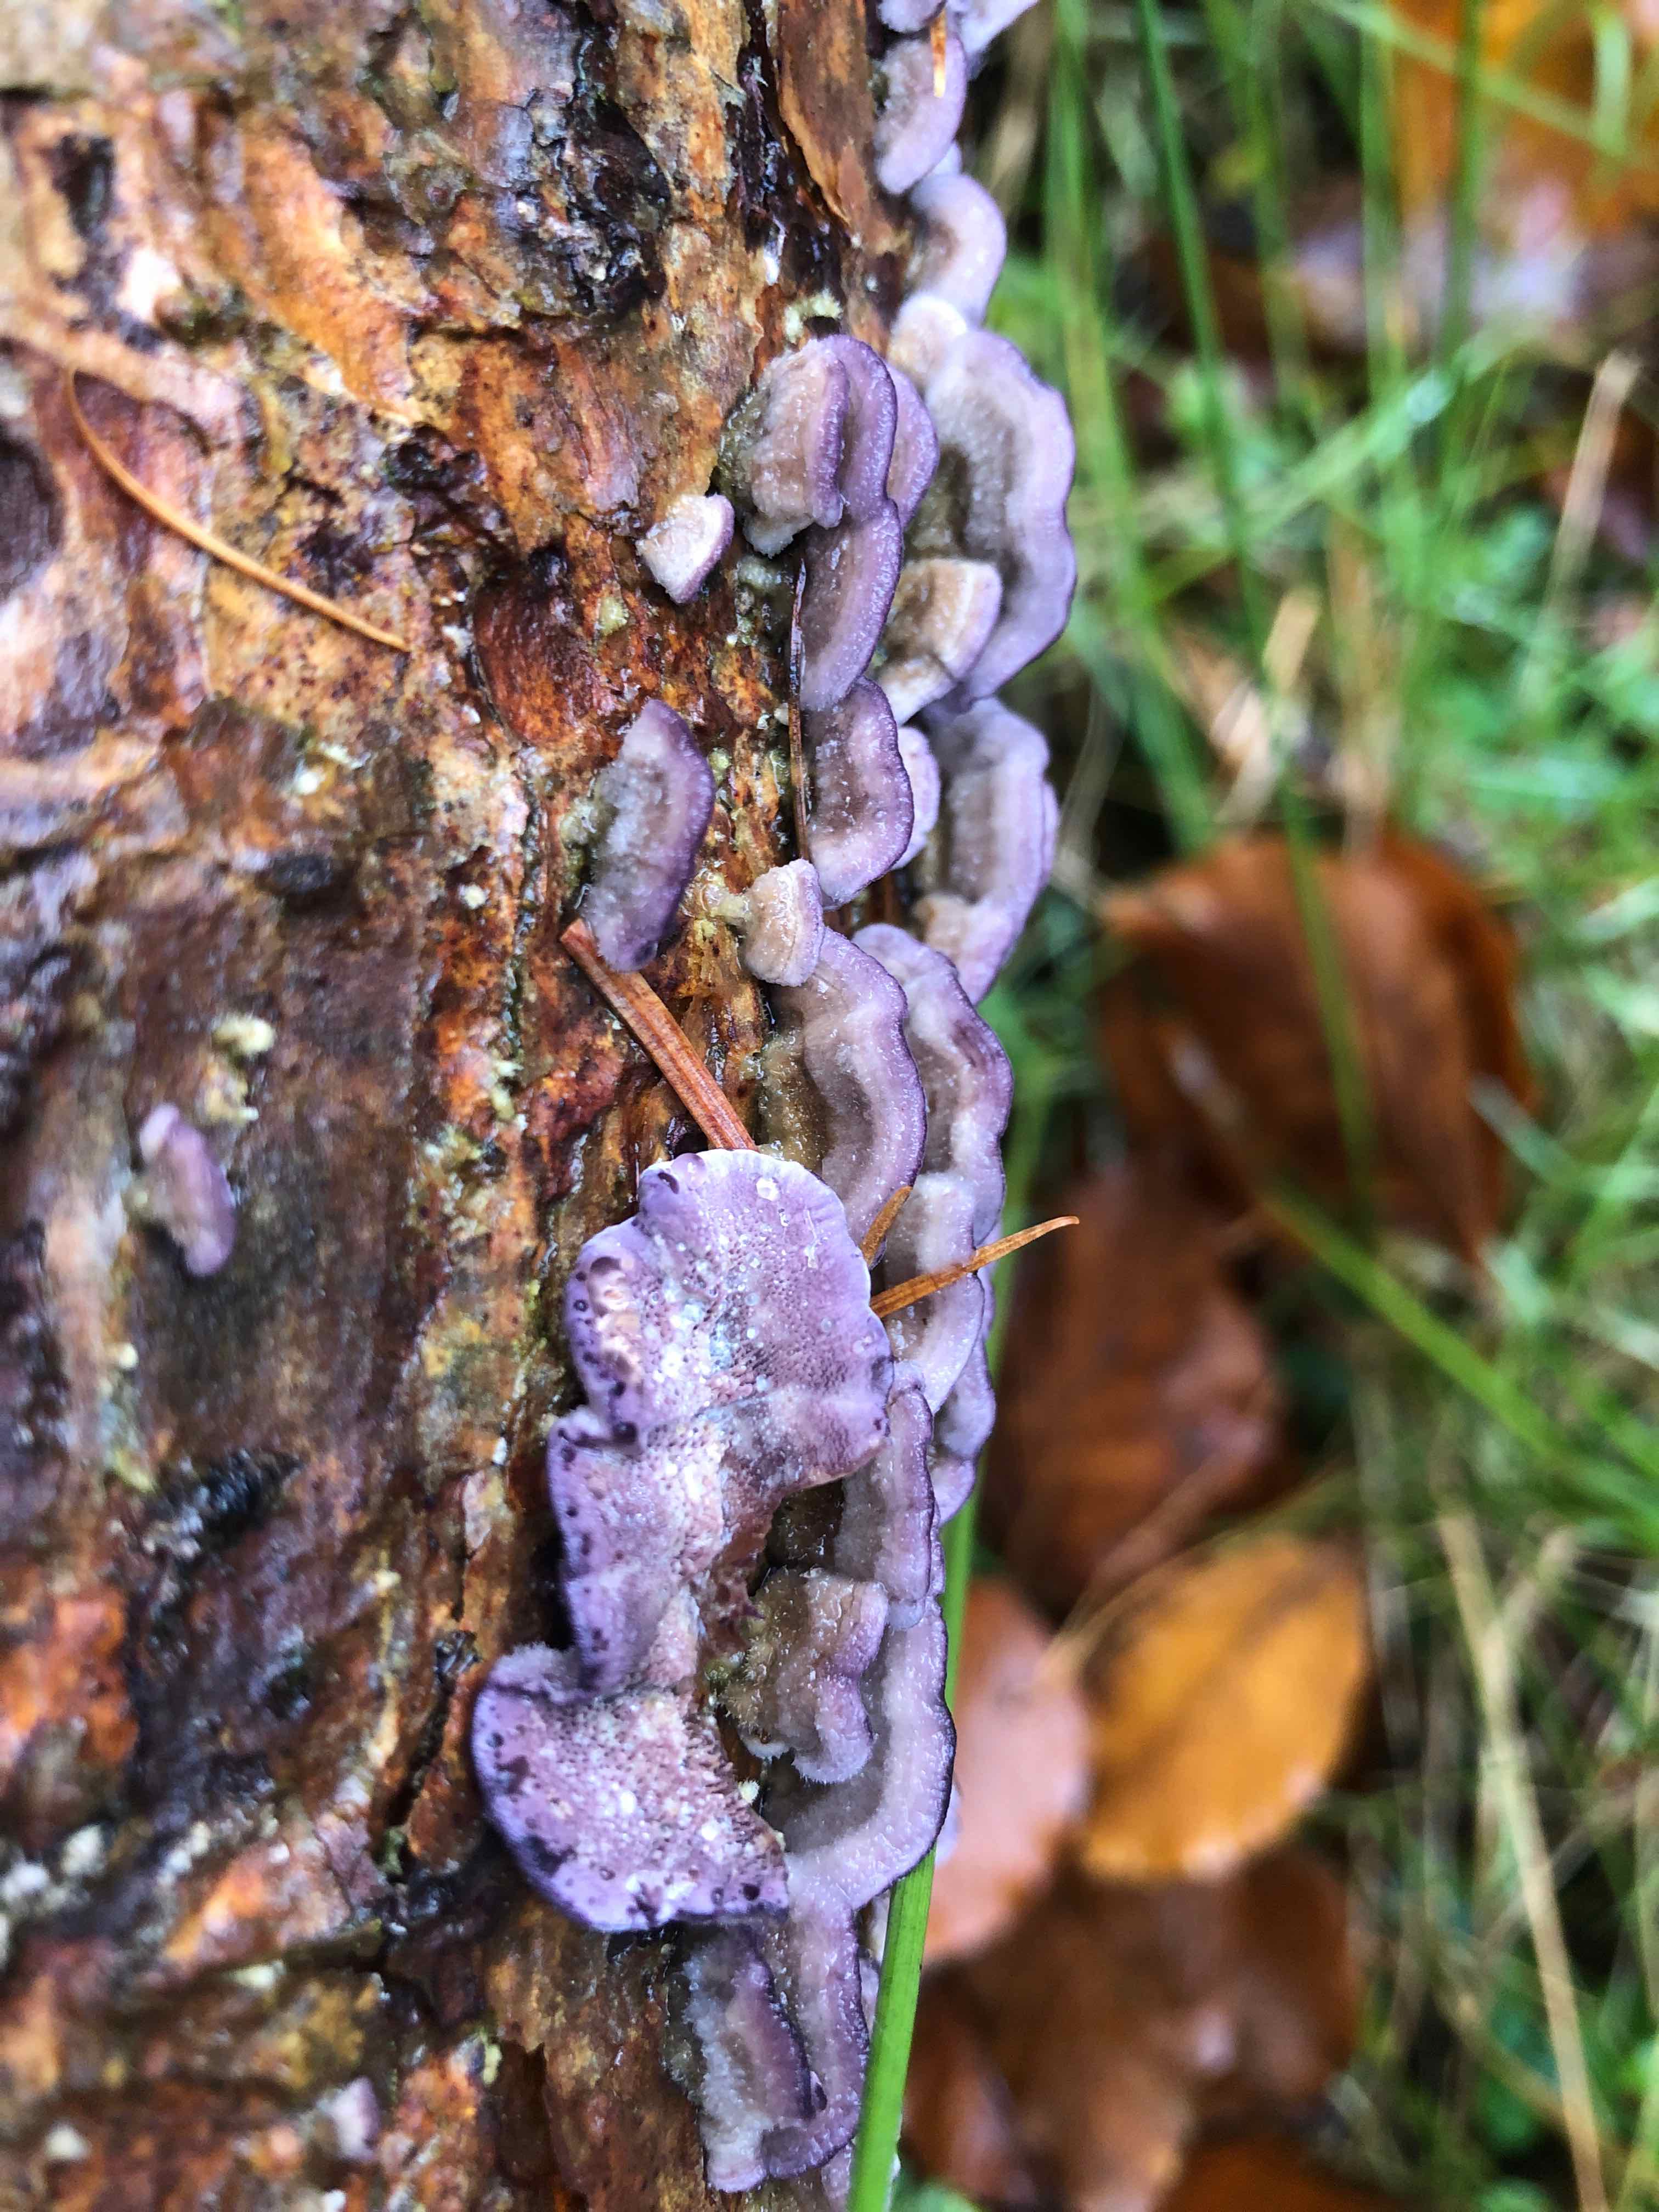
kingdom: Fungi
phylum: Basidiomycota
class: Agaricomycetes
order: Hymenochaetales
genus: Trichaptum
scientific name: Trichaptum abietinum
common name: almindelig violporesvamp
